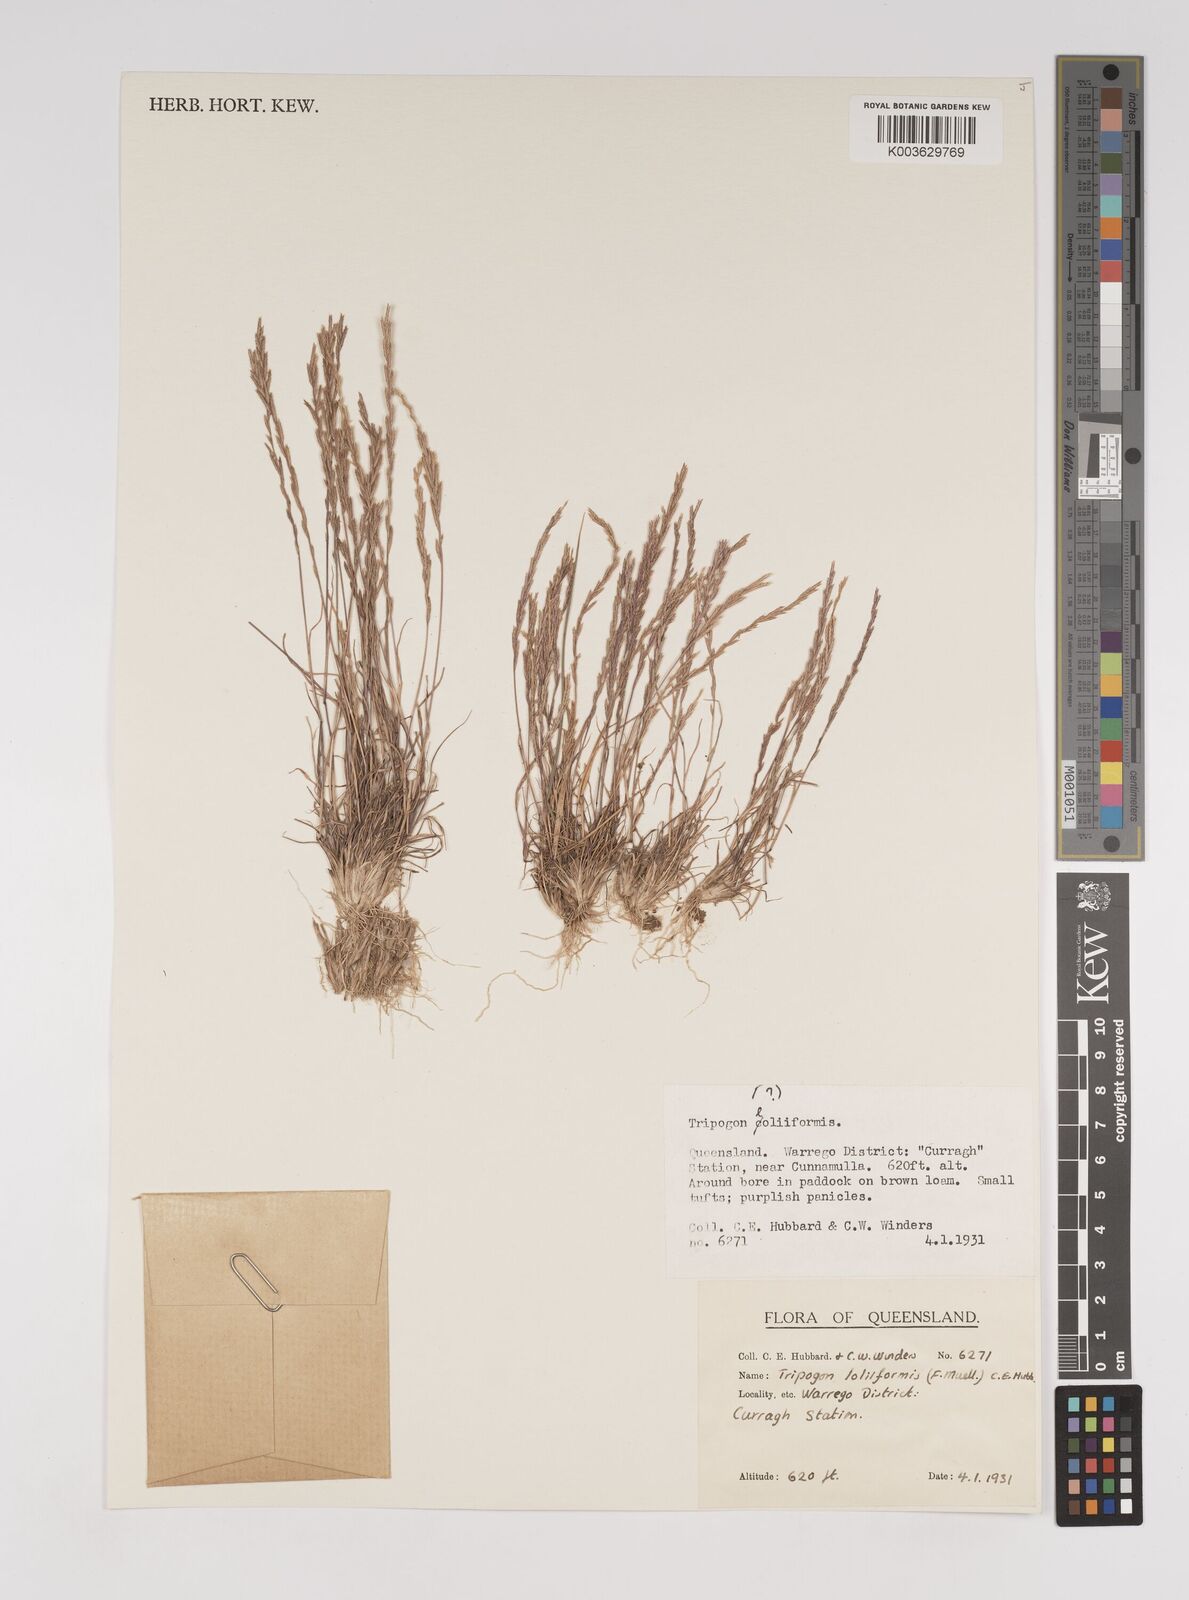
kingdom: Plantae
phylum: Tracheophyta
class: Liliopsida
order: Poales
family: Poaceae
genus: Tripogonella
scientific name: Tripogonella loliiformis
